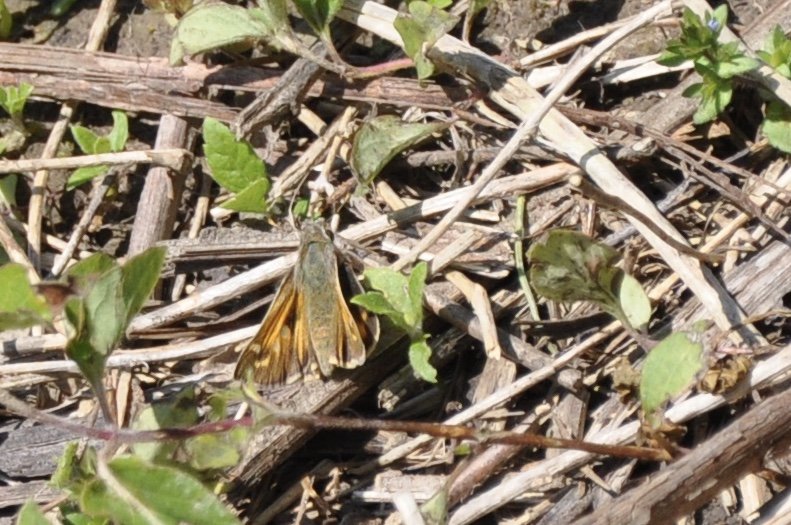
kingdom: Animalia
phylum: Arthropoda
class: Insecta
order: Lepidoptera
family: Hesperiidae
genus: Atalopedes
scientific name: Atalopedes campestris
